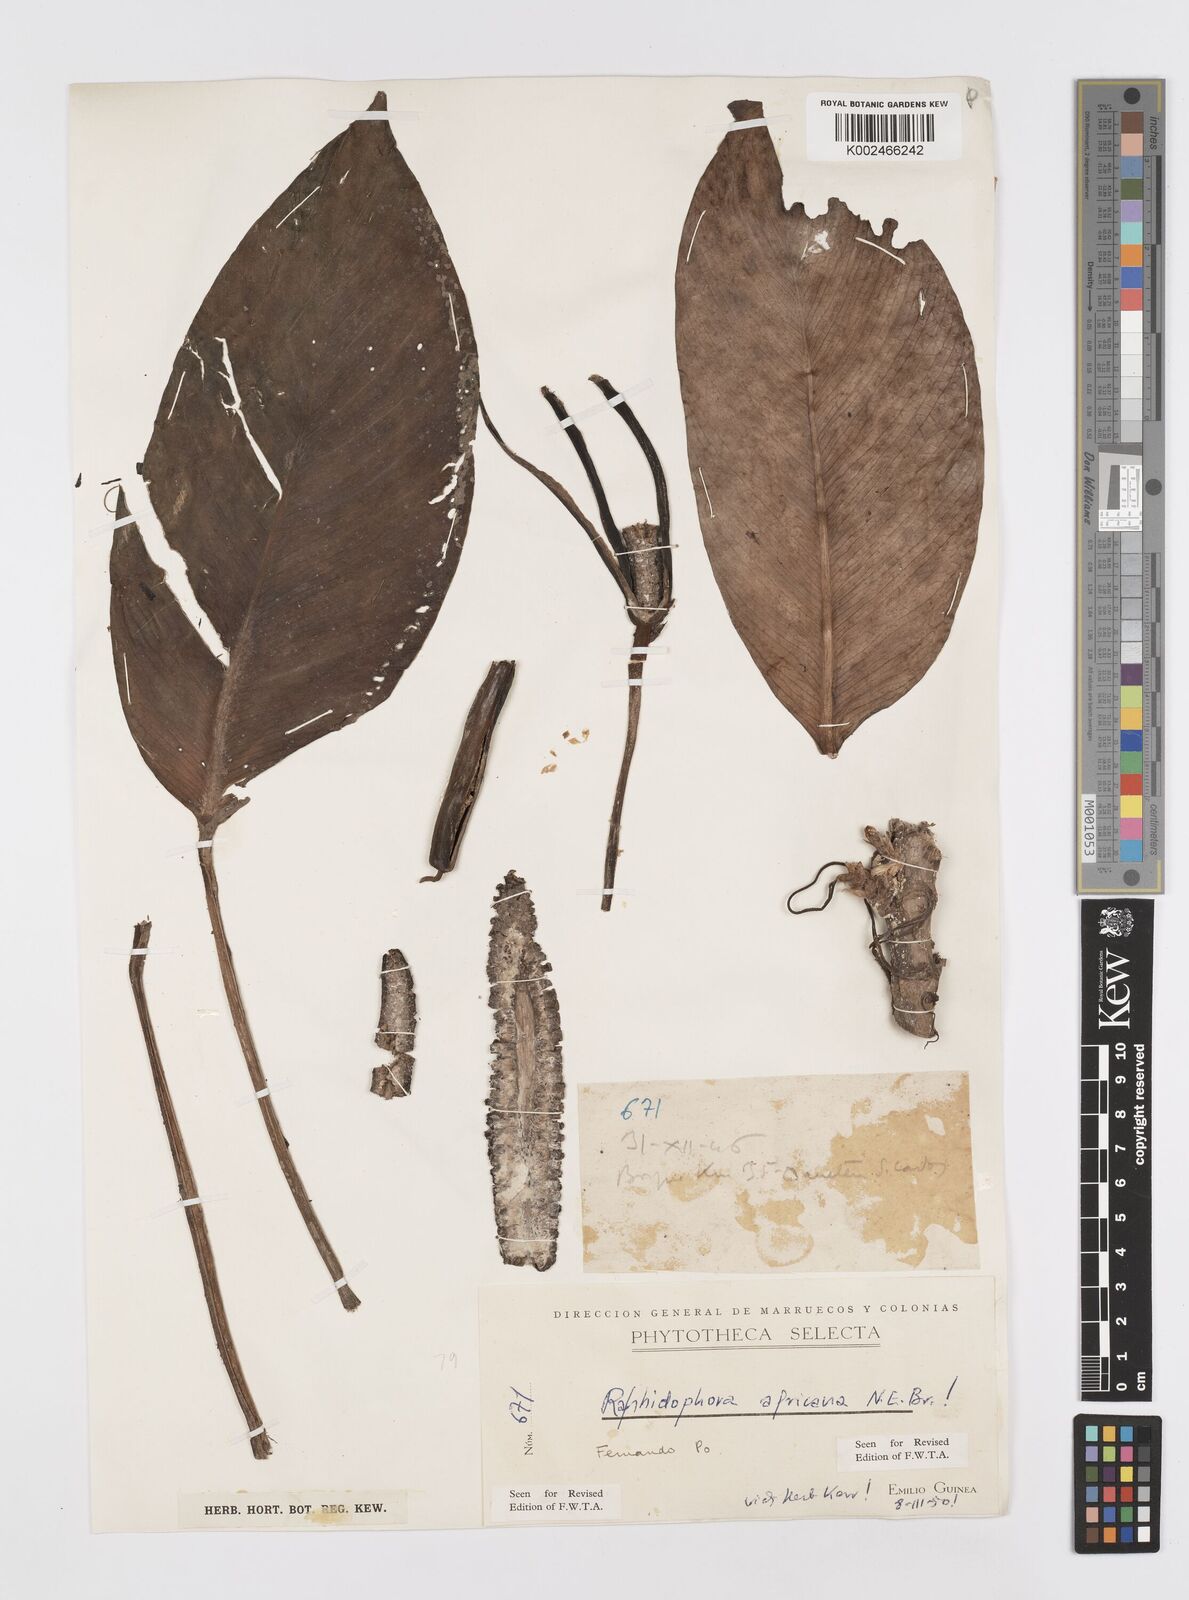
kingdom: Plantae
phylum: Tracheophyta
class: Liliopsida
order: Alismatales
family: Araceae
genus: Rhaphidophora
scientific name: Rhaphidophora africana
